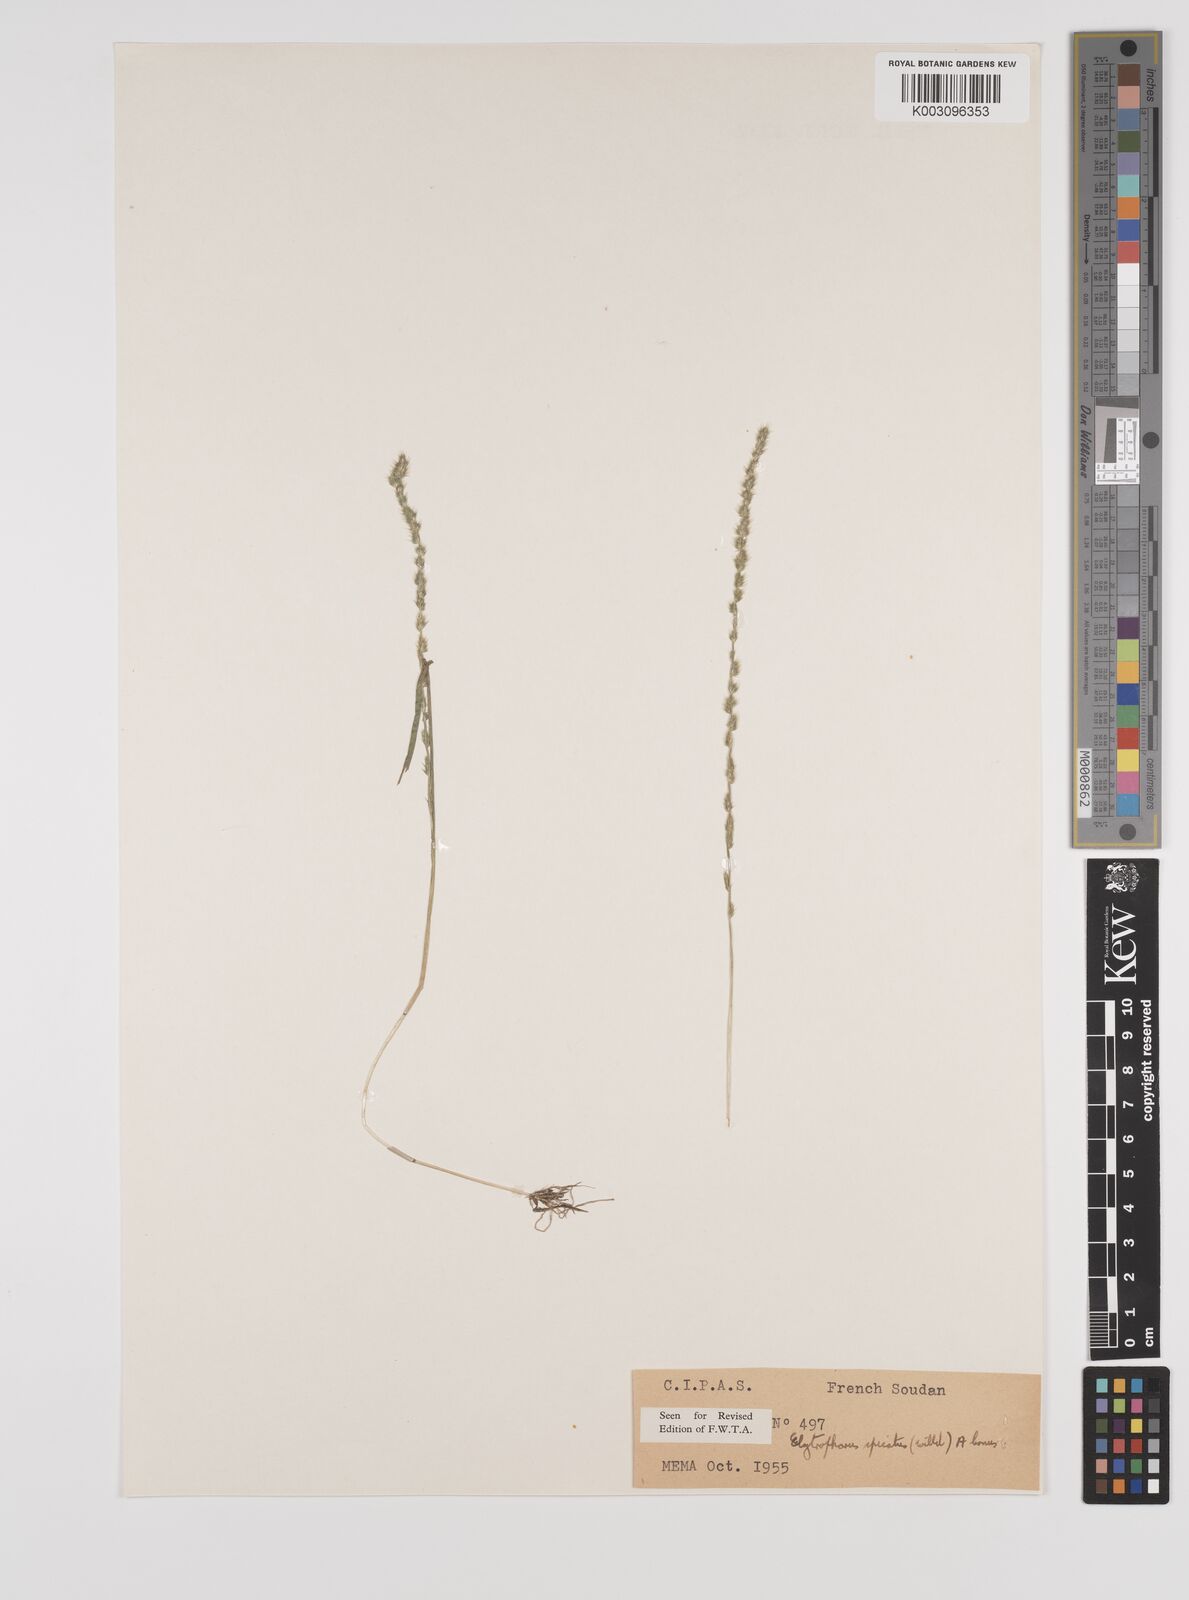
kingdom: Plantae
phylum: Tracheophyta
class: Liliopsida
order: Poales
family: Poaceae
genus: Elytrophorus
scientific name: Elytrophorus spicatus
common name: Spike grass
